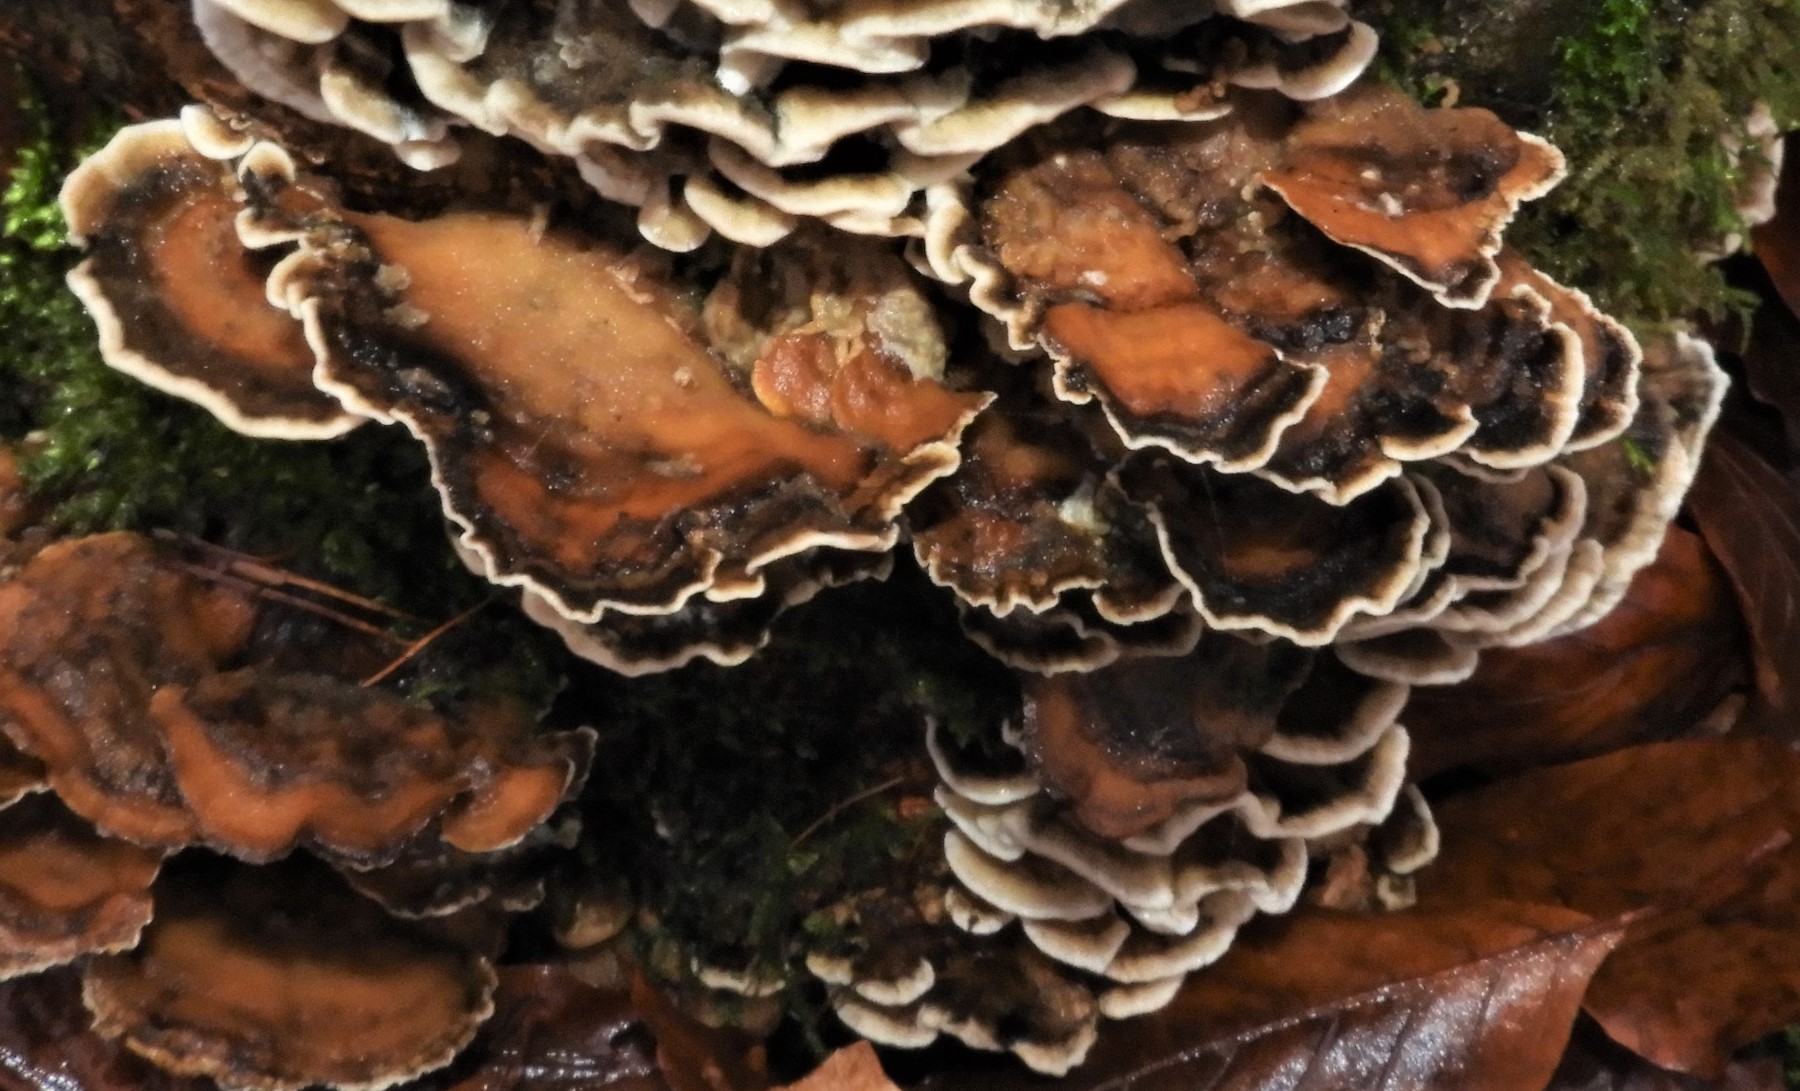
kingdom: Fungi
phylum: Basidiomycota
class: Agaricomycetes
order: Polyporales
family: Phanerochaetaceae
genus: Bjerkandera
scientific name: Bjerkandera adusta
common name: sveden sodporesvamp
